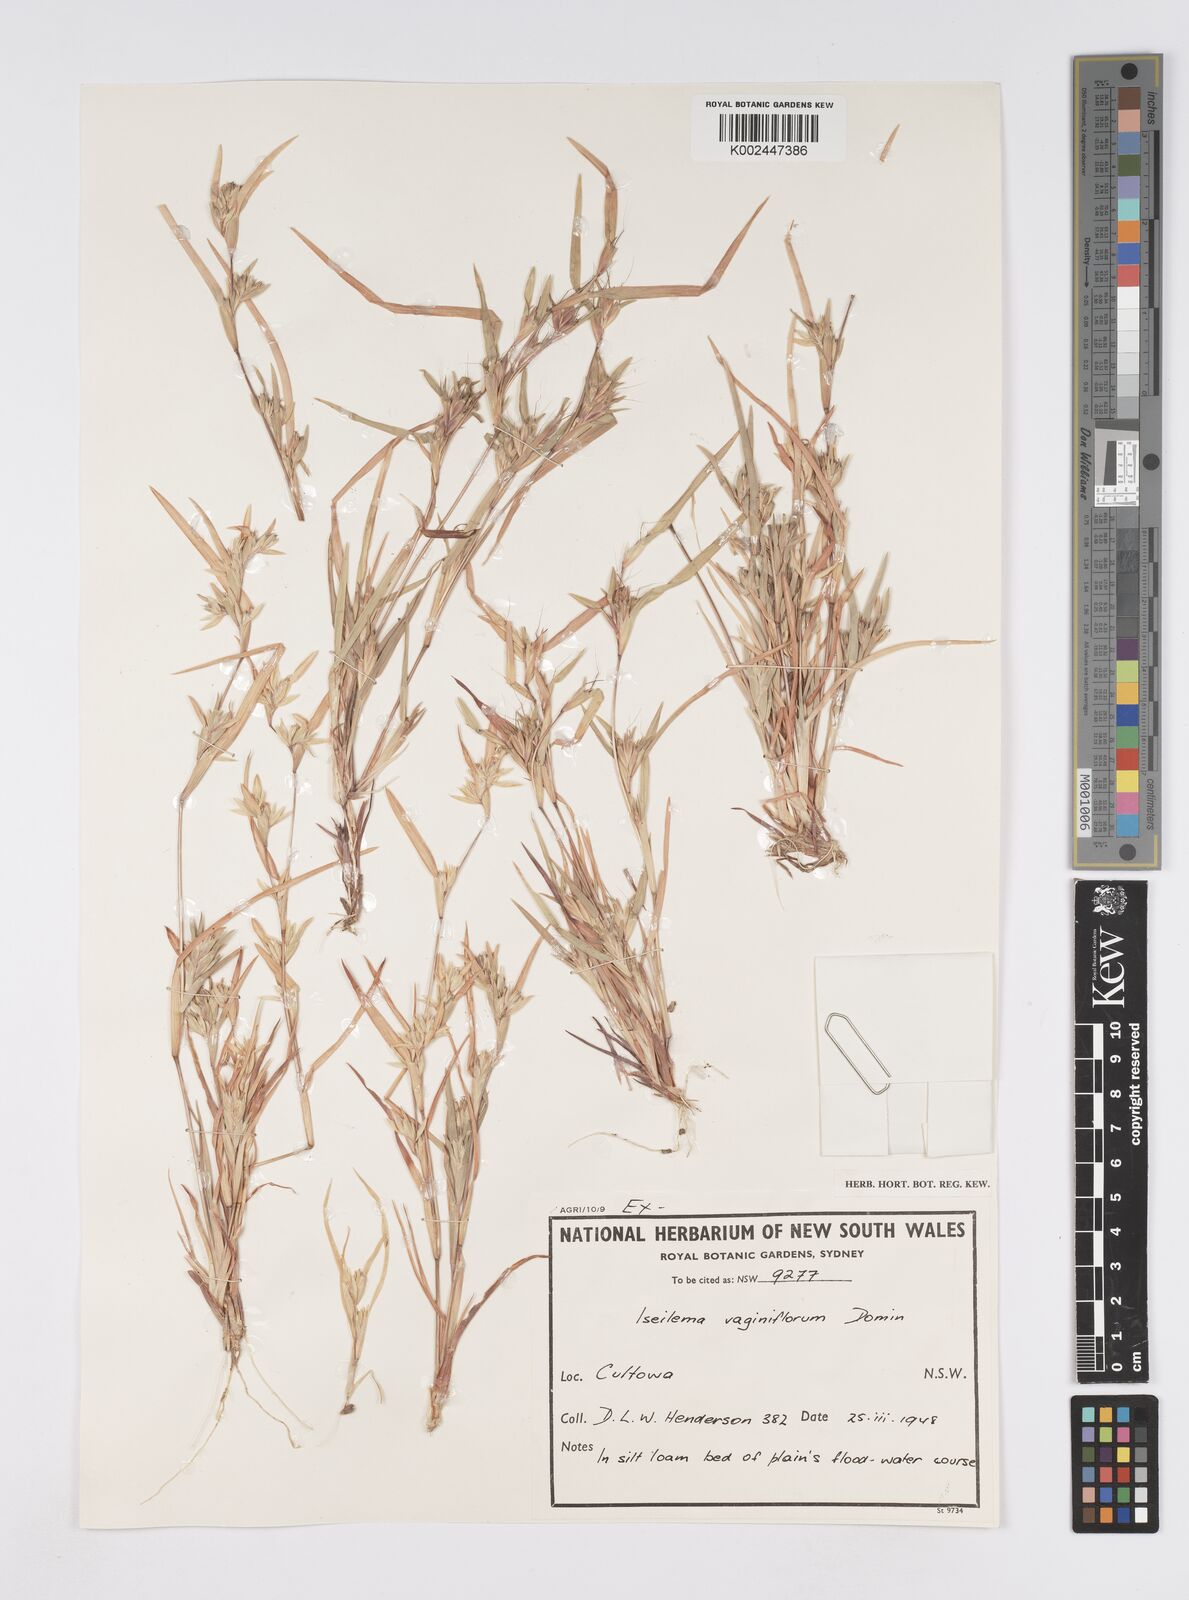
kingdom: Plantae
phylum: Tracheophyta
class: Liliopsida
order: Poales
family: Poaceae
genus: Iseilema
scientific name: Iseilema vaginiflorum
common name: Red flinders grass
